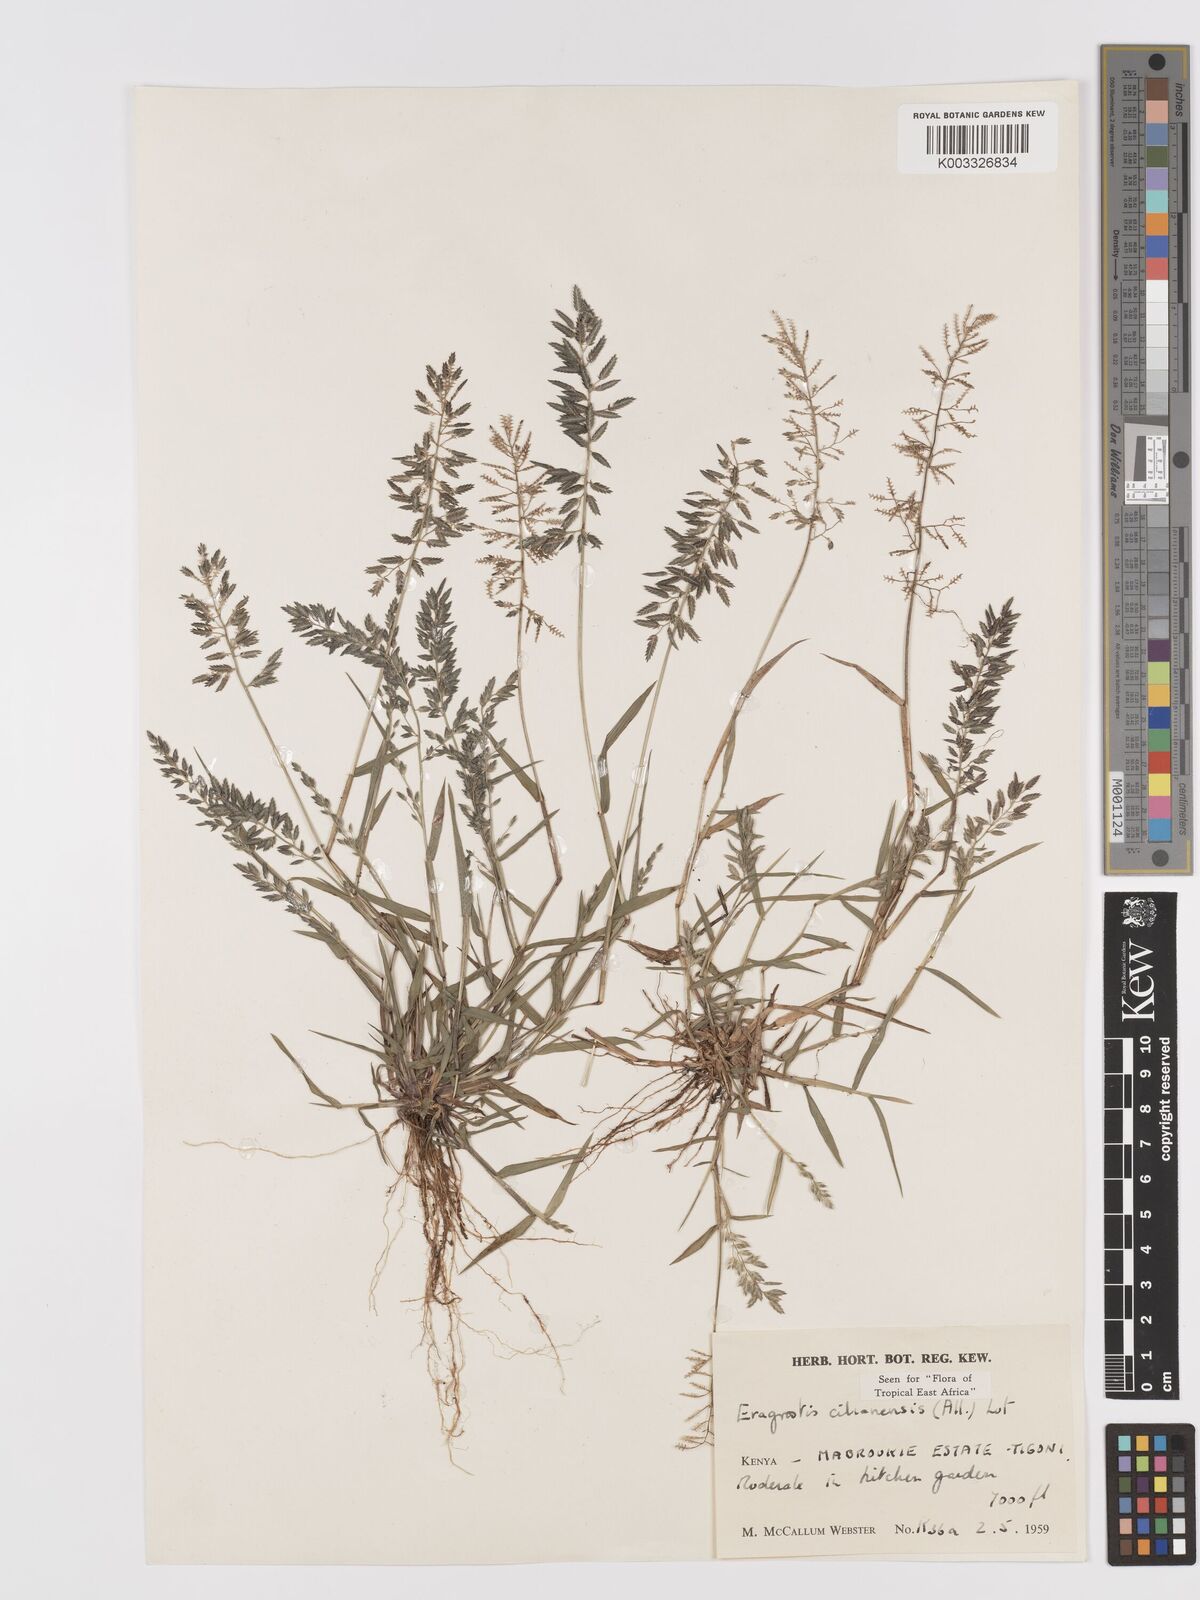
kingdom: Plantae
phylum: Tracheophyta
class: Liliopsida
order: Poales
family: Poaceae
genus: Eragrostis
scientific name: Eragrostis cilianensis
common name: Stinkgrass
